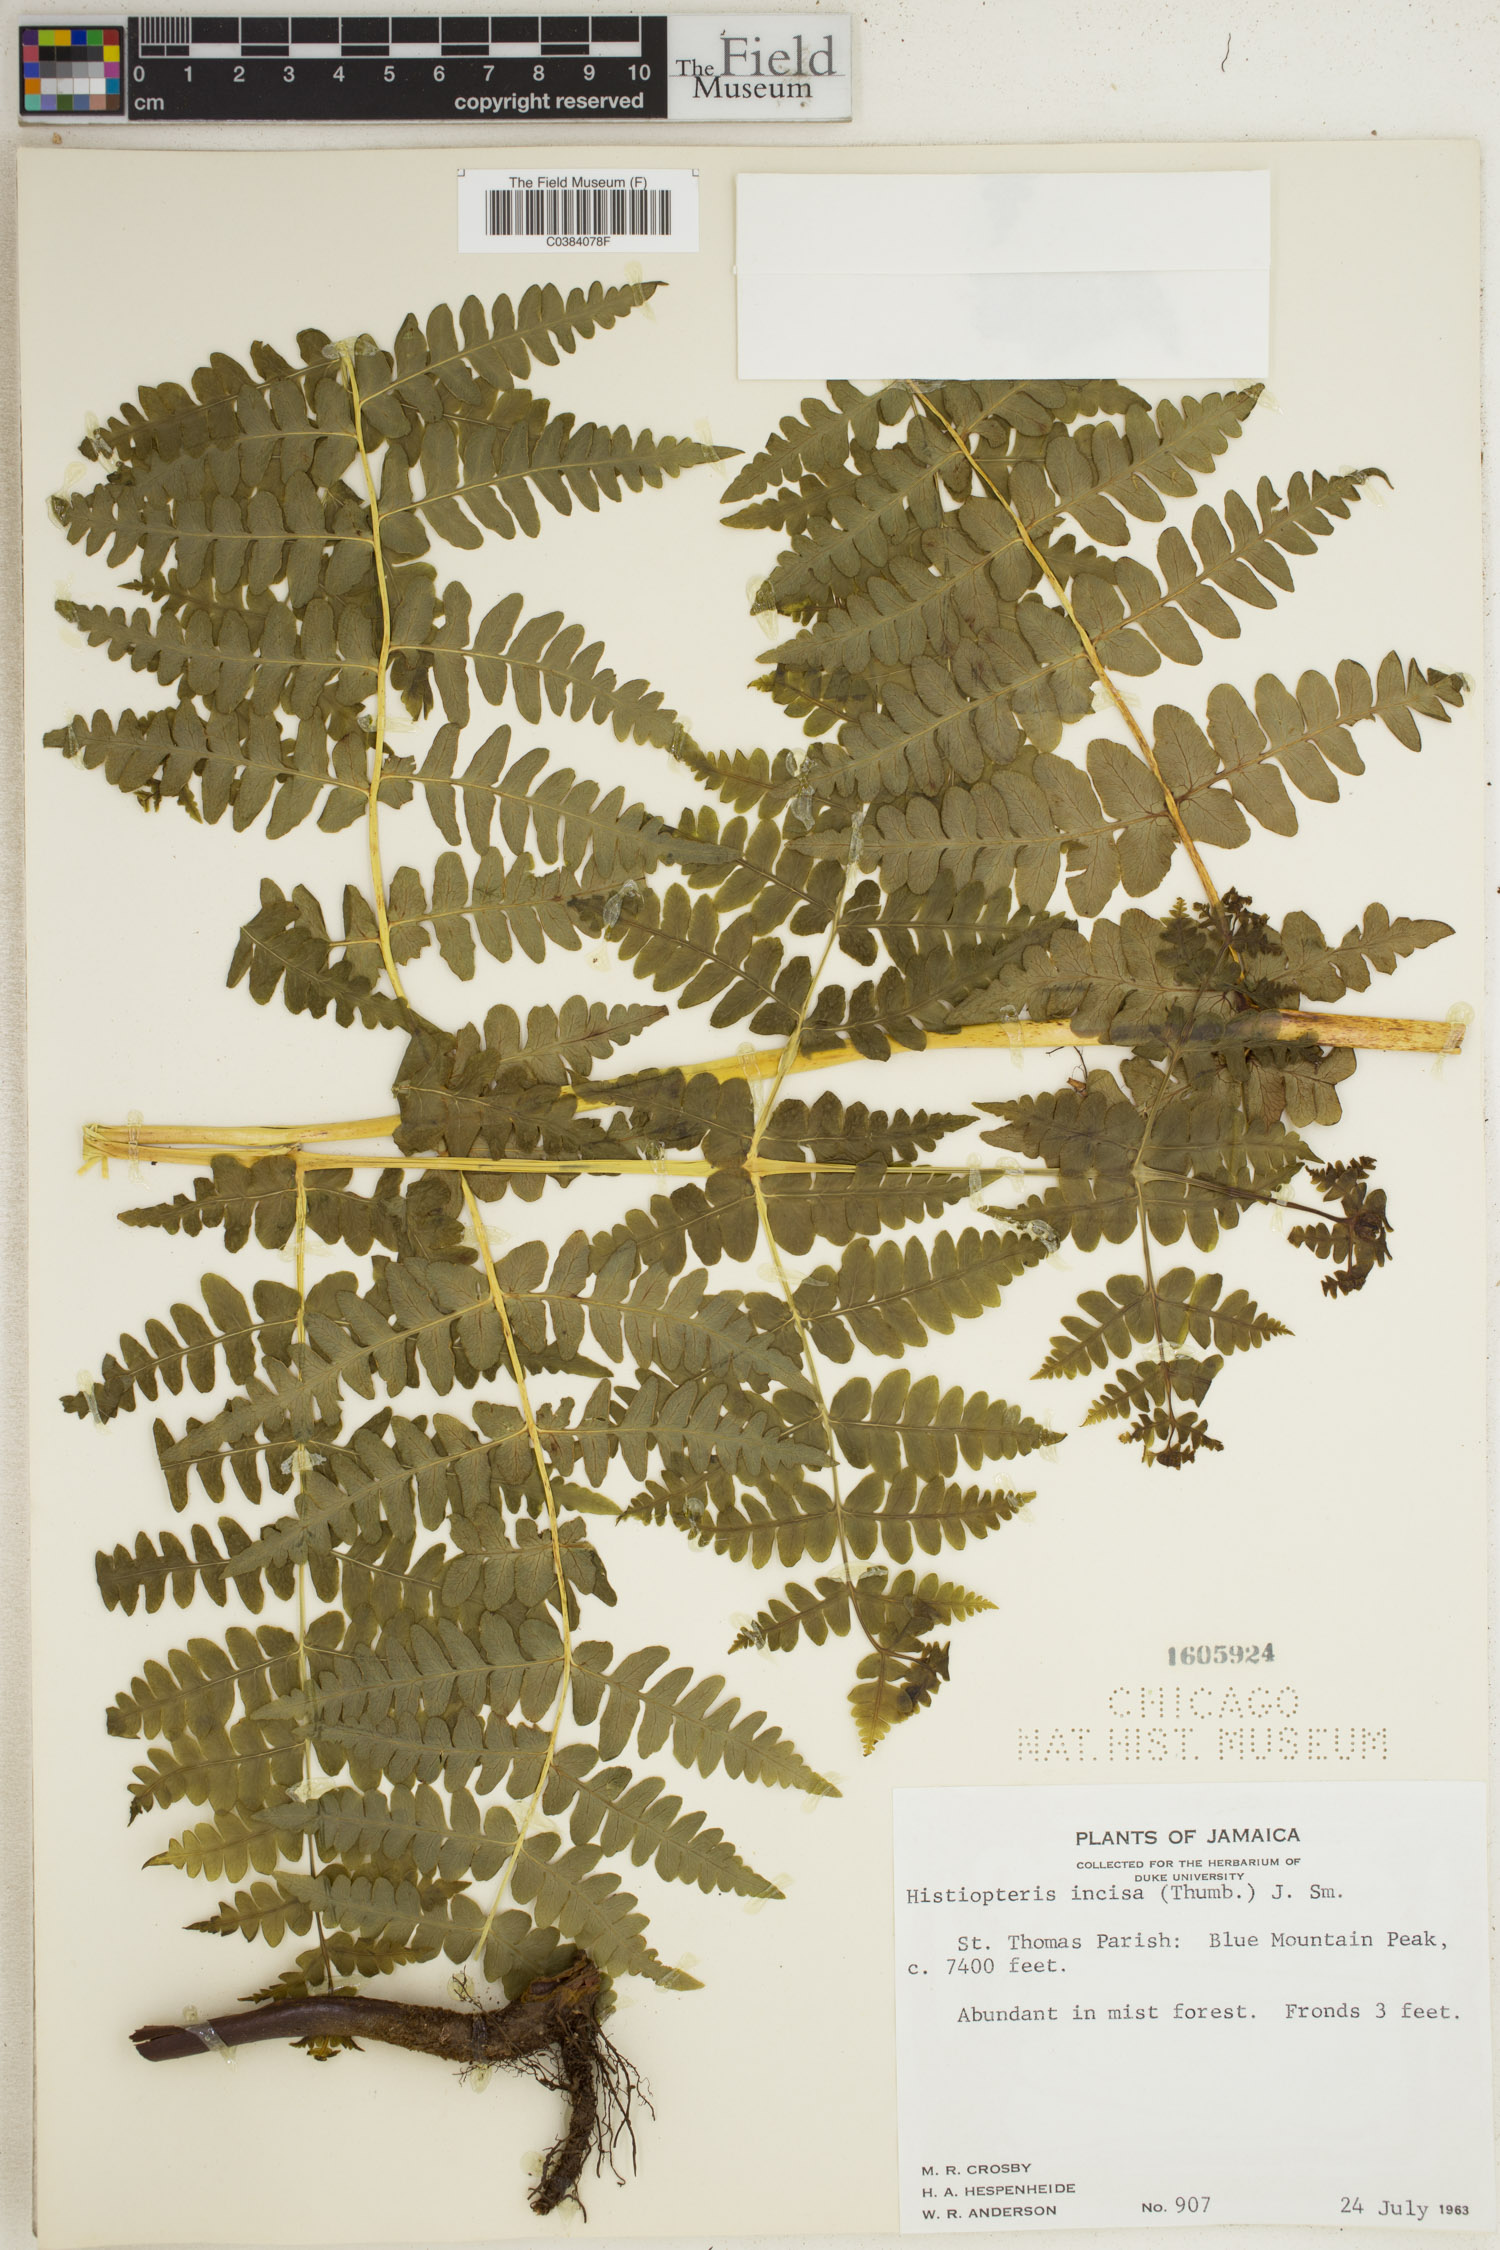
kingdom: Plantae
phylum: Tracheophyta
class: Polypodiopsida
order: Polypodiales
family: Dennstaedtiaceae
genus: Histiopteris
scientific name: Histiopteris incisa
